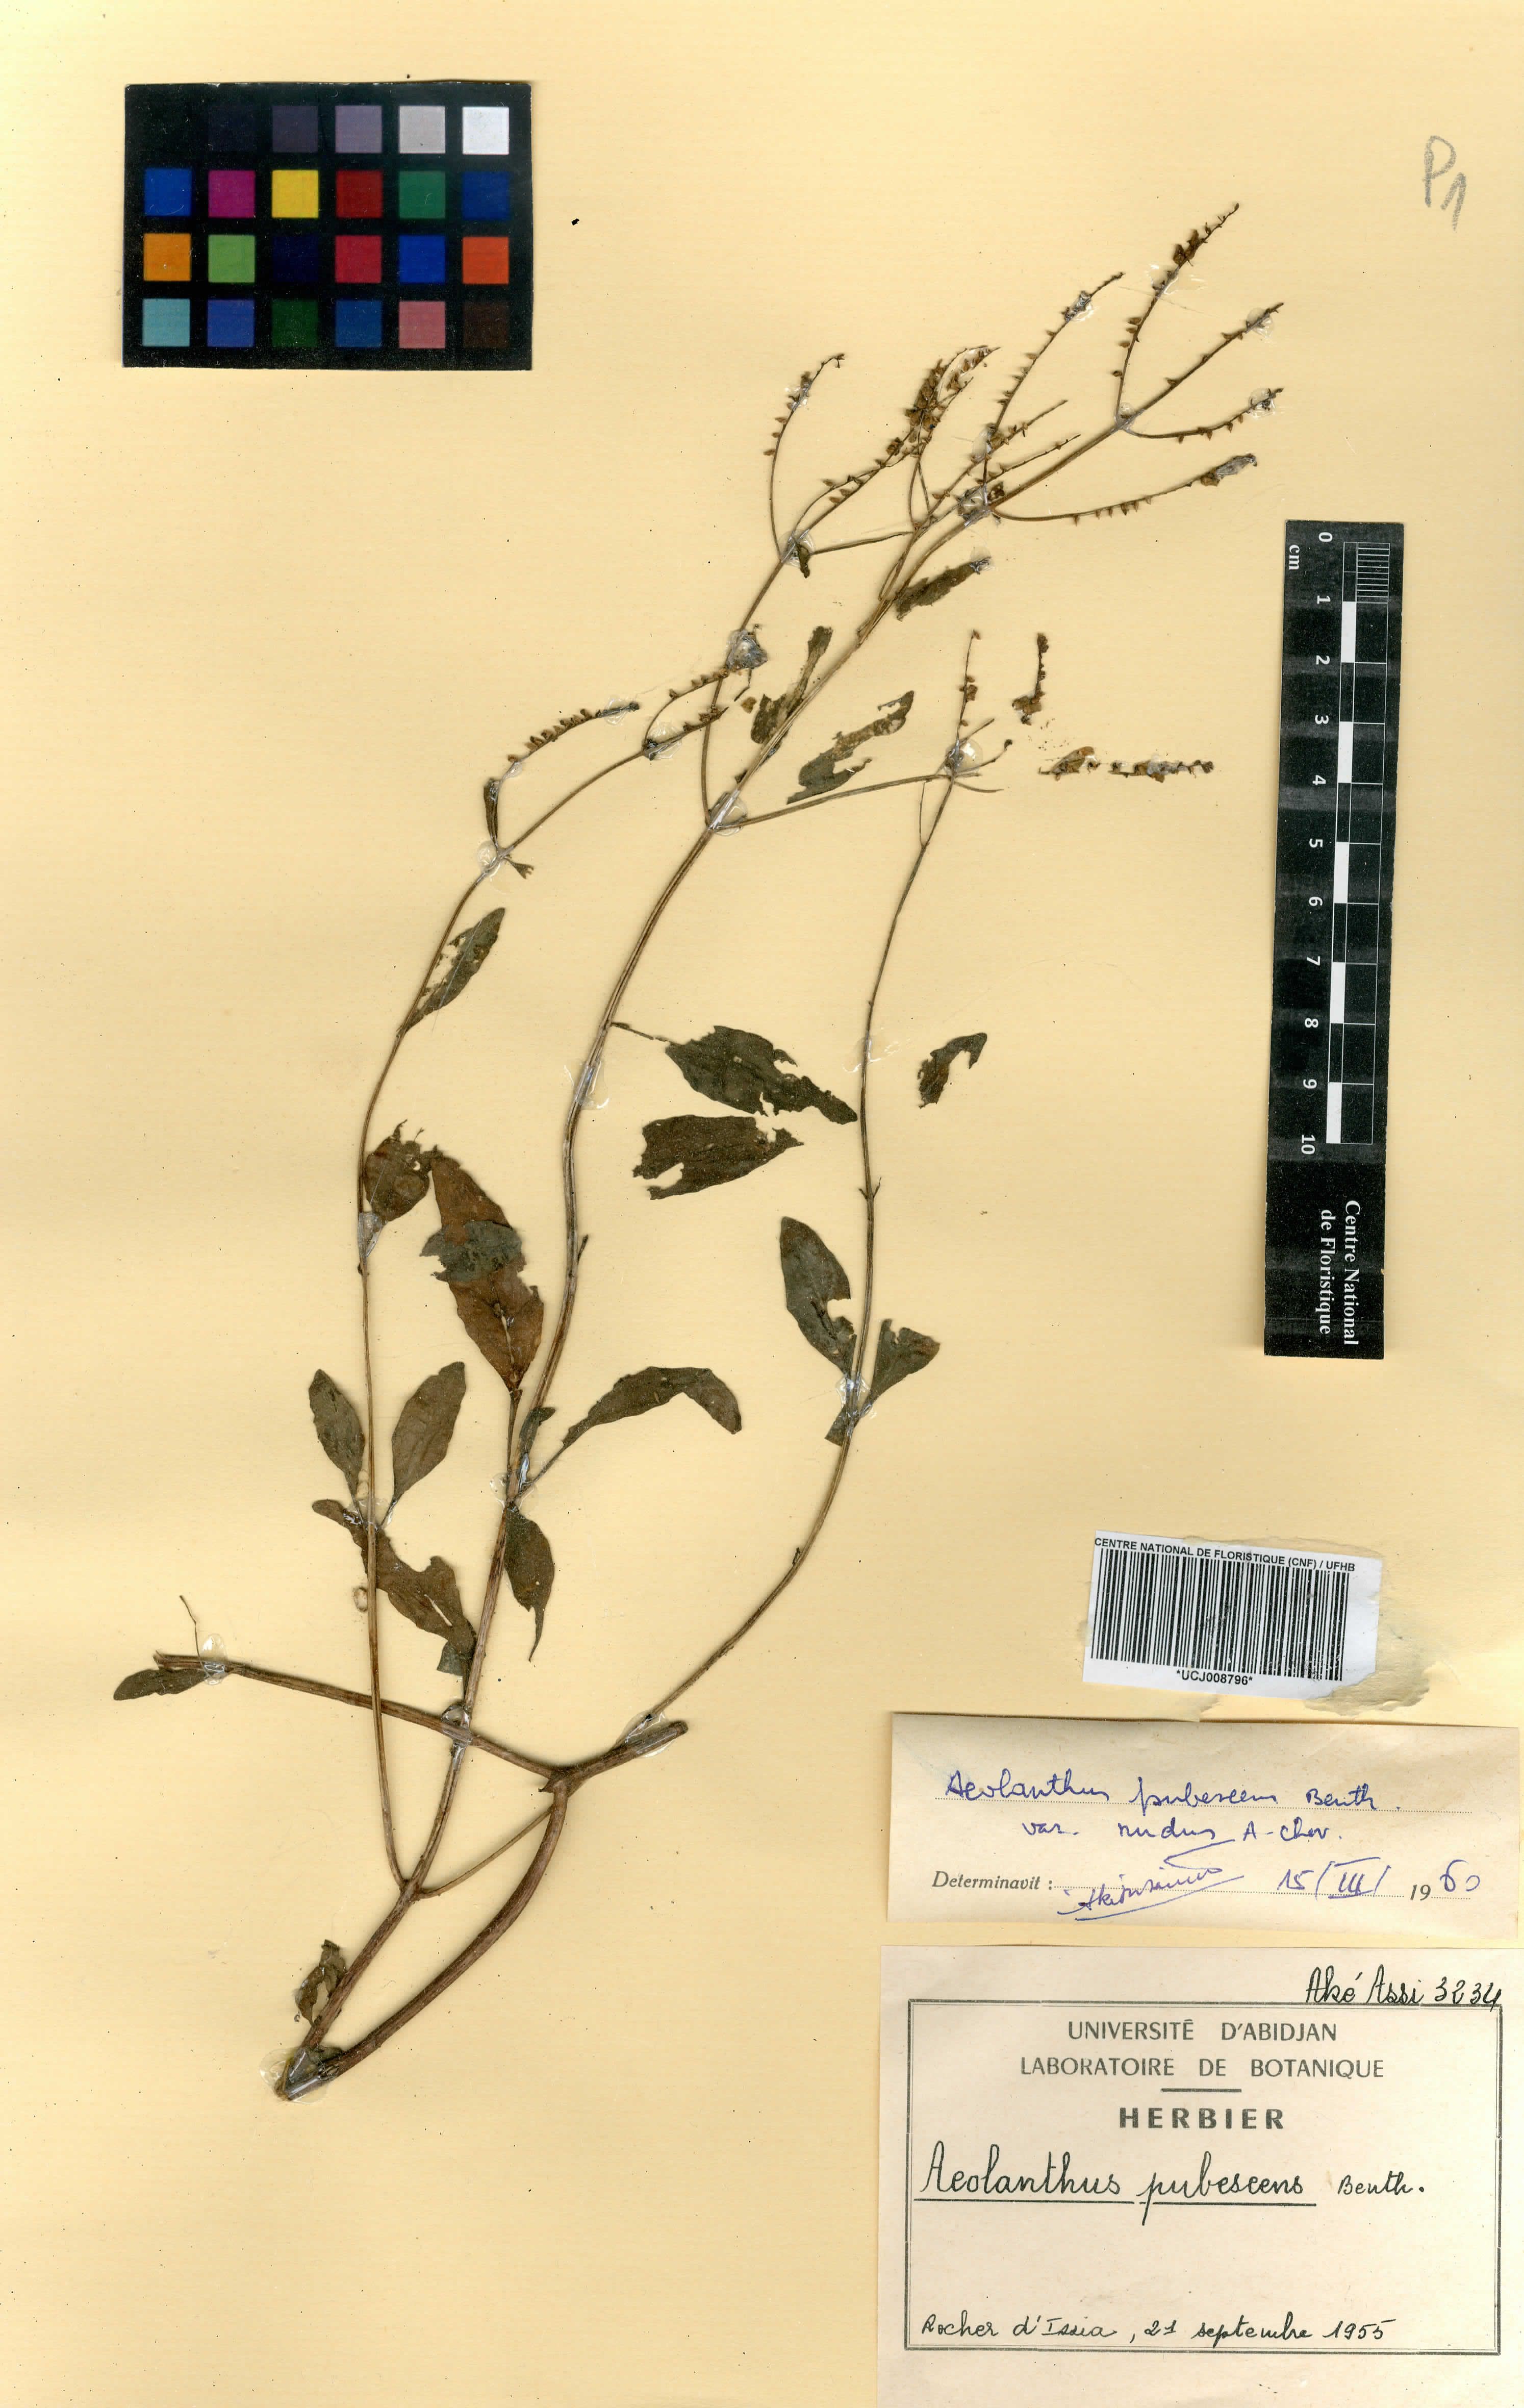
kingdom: Plantae
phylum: Tracheophyta
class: Magnoliopsida
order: Lamiales
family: Lamiaceae
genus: Aeollanthus
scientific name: Aeollanthus pubescens
